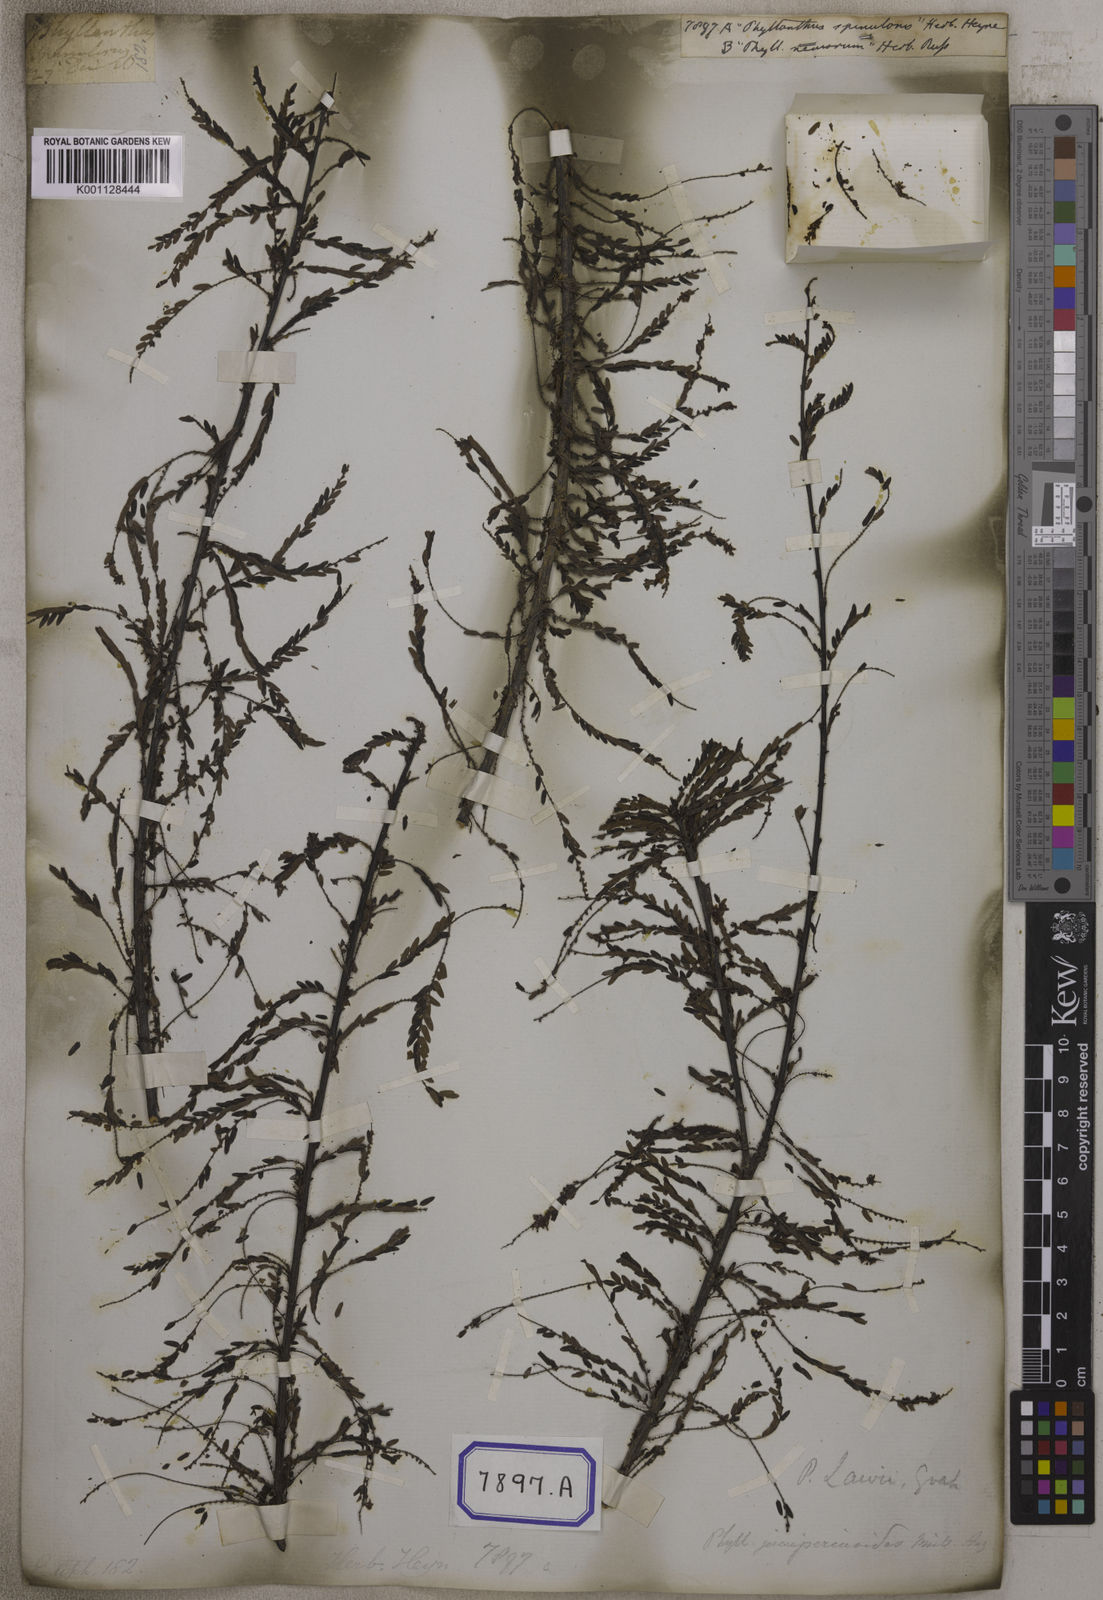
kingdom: Plantae
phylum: Tracheophyta
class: Magnoliopsida
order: Malpighiales
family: Euphorbiaceae
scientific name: Euphorbiaceae
